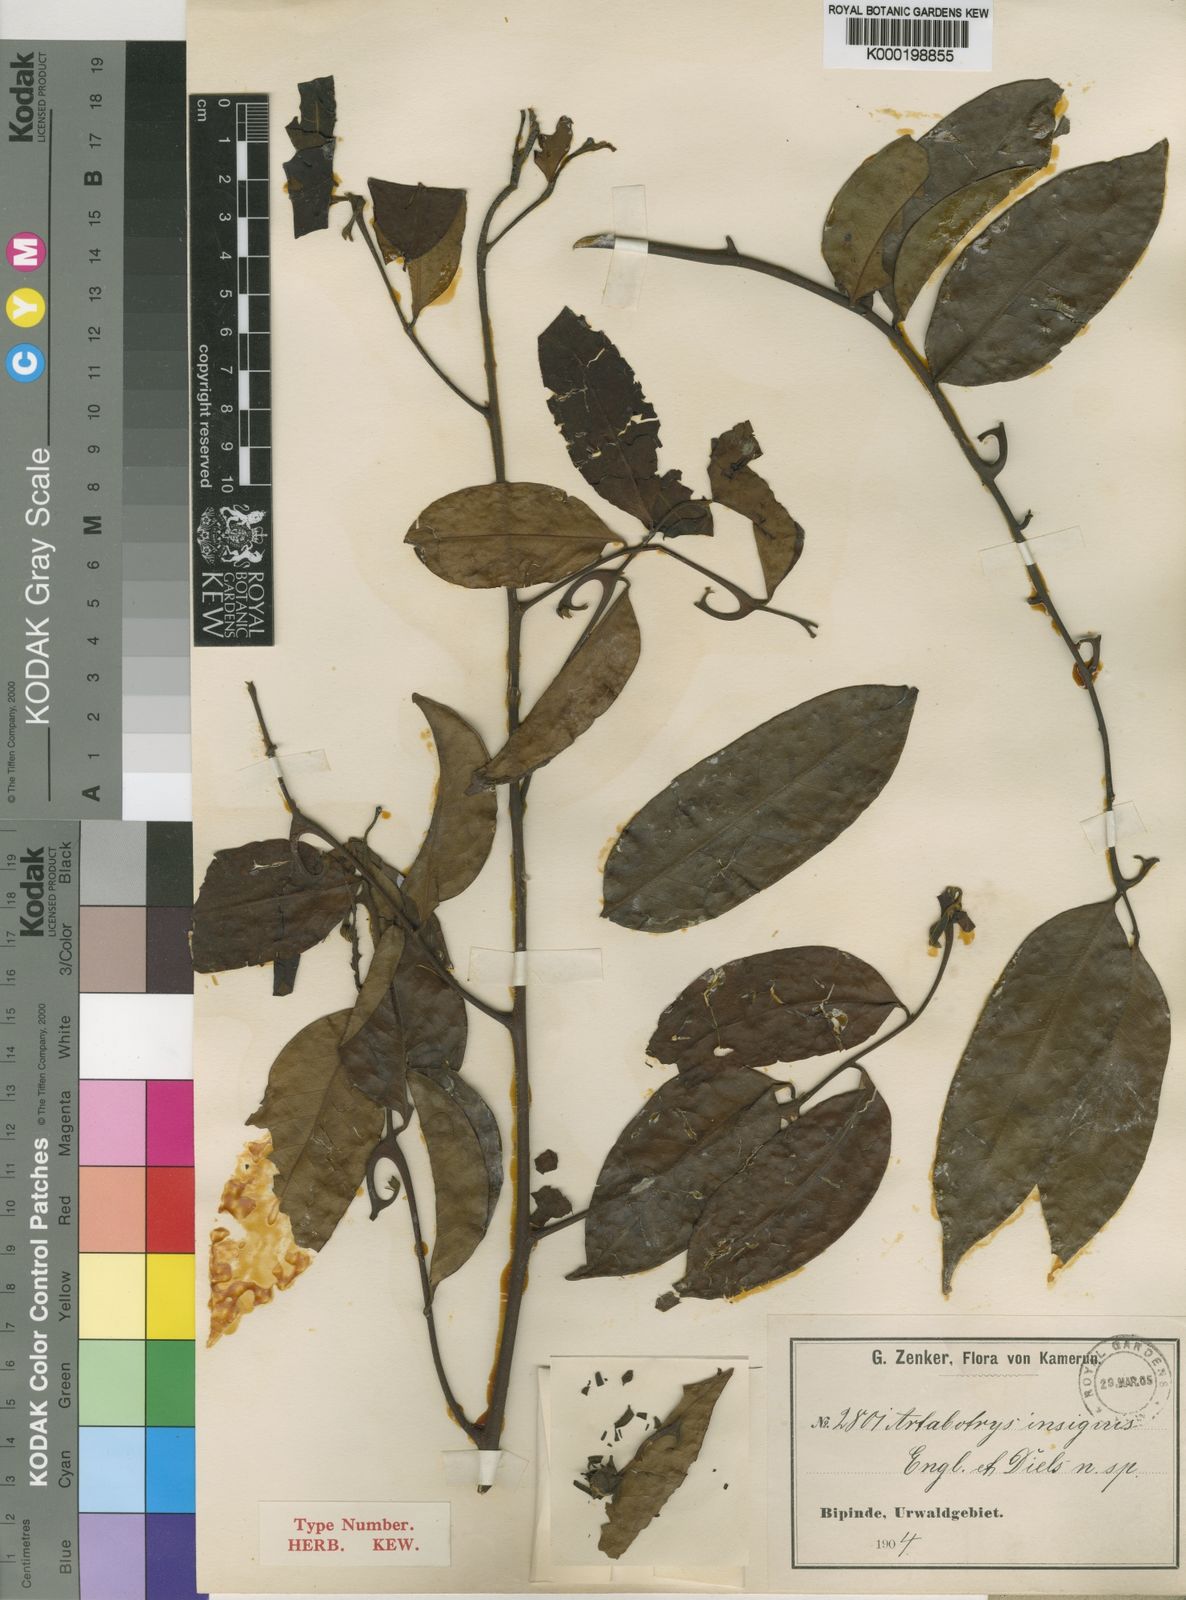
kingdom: Plantae
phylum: Tracheophyta
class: Magnoliopsida
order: Magnoliales
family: Annonaceae
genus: Artabotrys
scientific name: Artabotrys insignis
